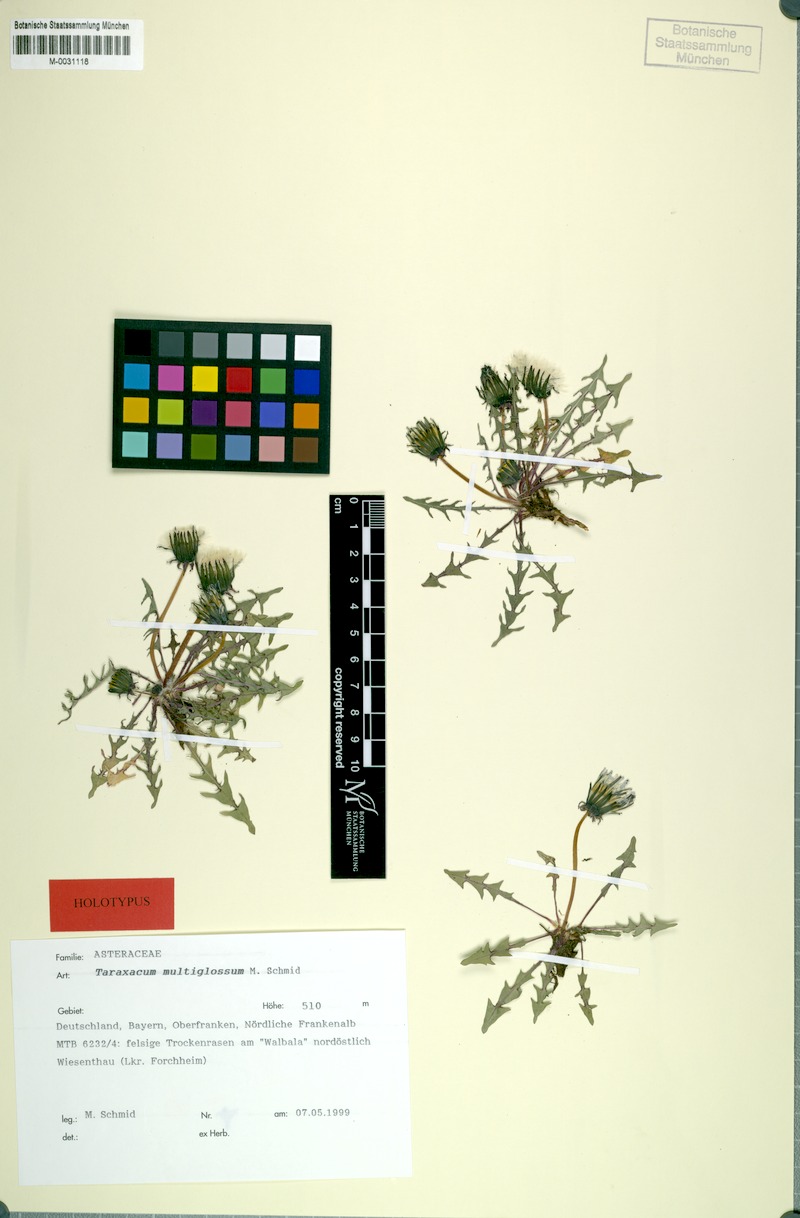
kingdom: Plantae
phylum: Tracheophyta
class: Magnoliopsida
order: Asterales
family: Asteraceae
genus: Taraxacum
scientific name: Taraxacum multiglossum
